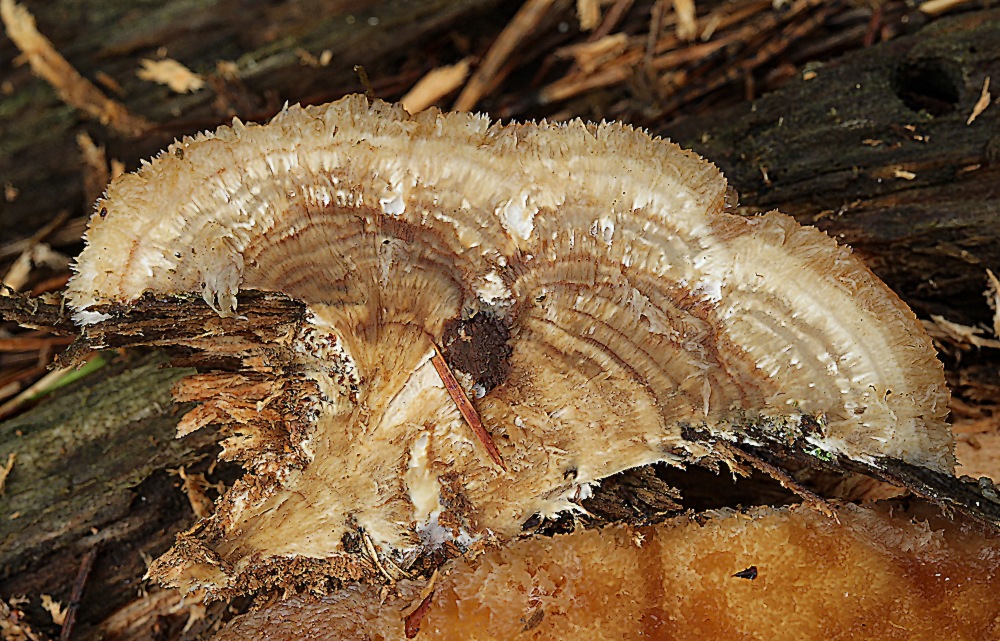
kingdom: Fungi
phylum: Basidiomycota
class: Agaricomycetes
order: Polyporales
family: Dacryobolaceae
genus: Postia
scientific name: Postia ptychogaster
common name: støvende kødporesvamp
